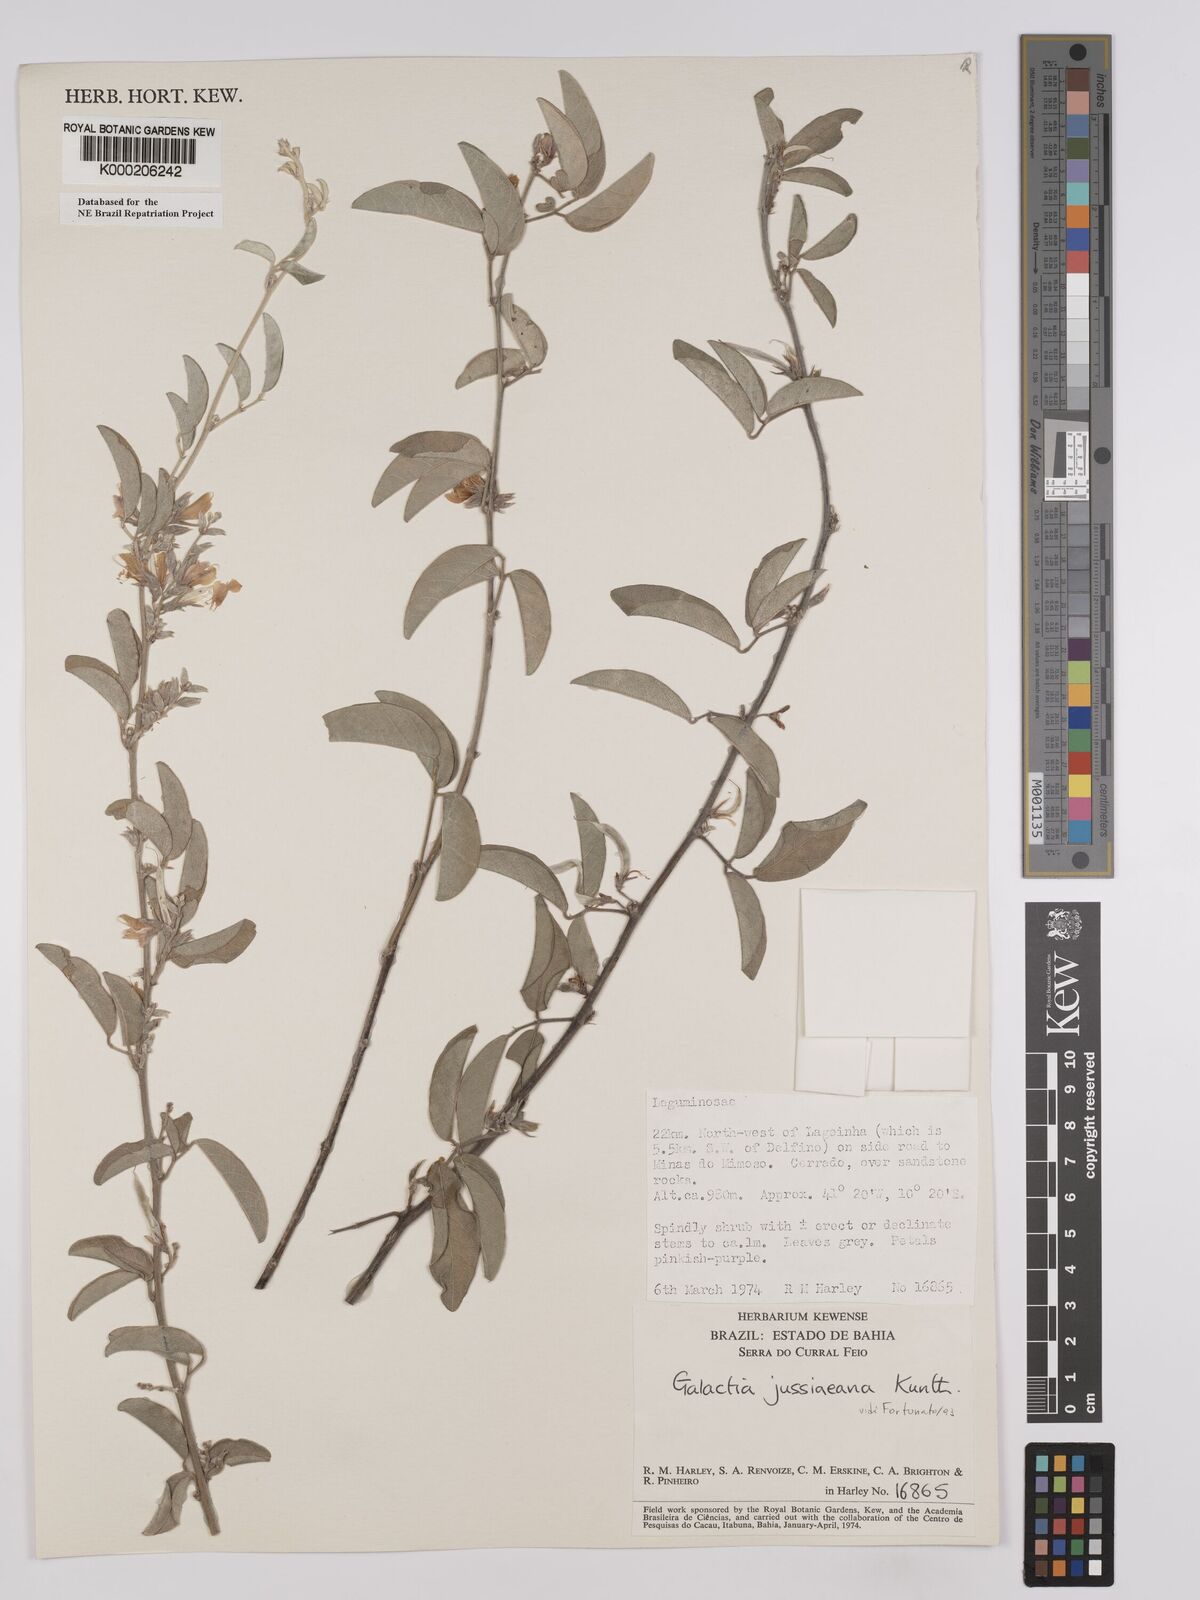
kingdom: Plantae
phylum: Tracheophyta
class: Magnoliopsida
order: Fabales
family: Fabaceae
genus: Galactia
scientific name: Galactia jussiaeana
